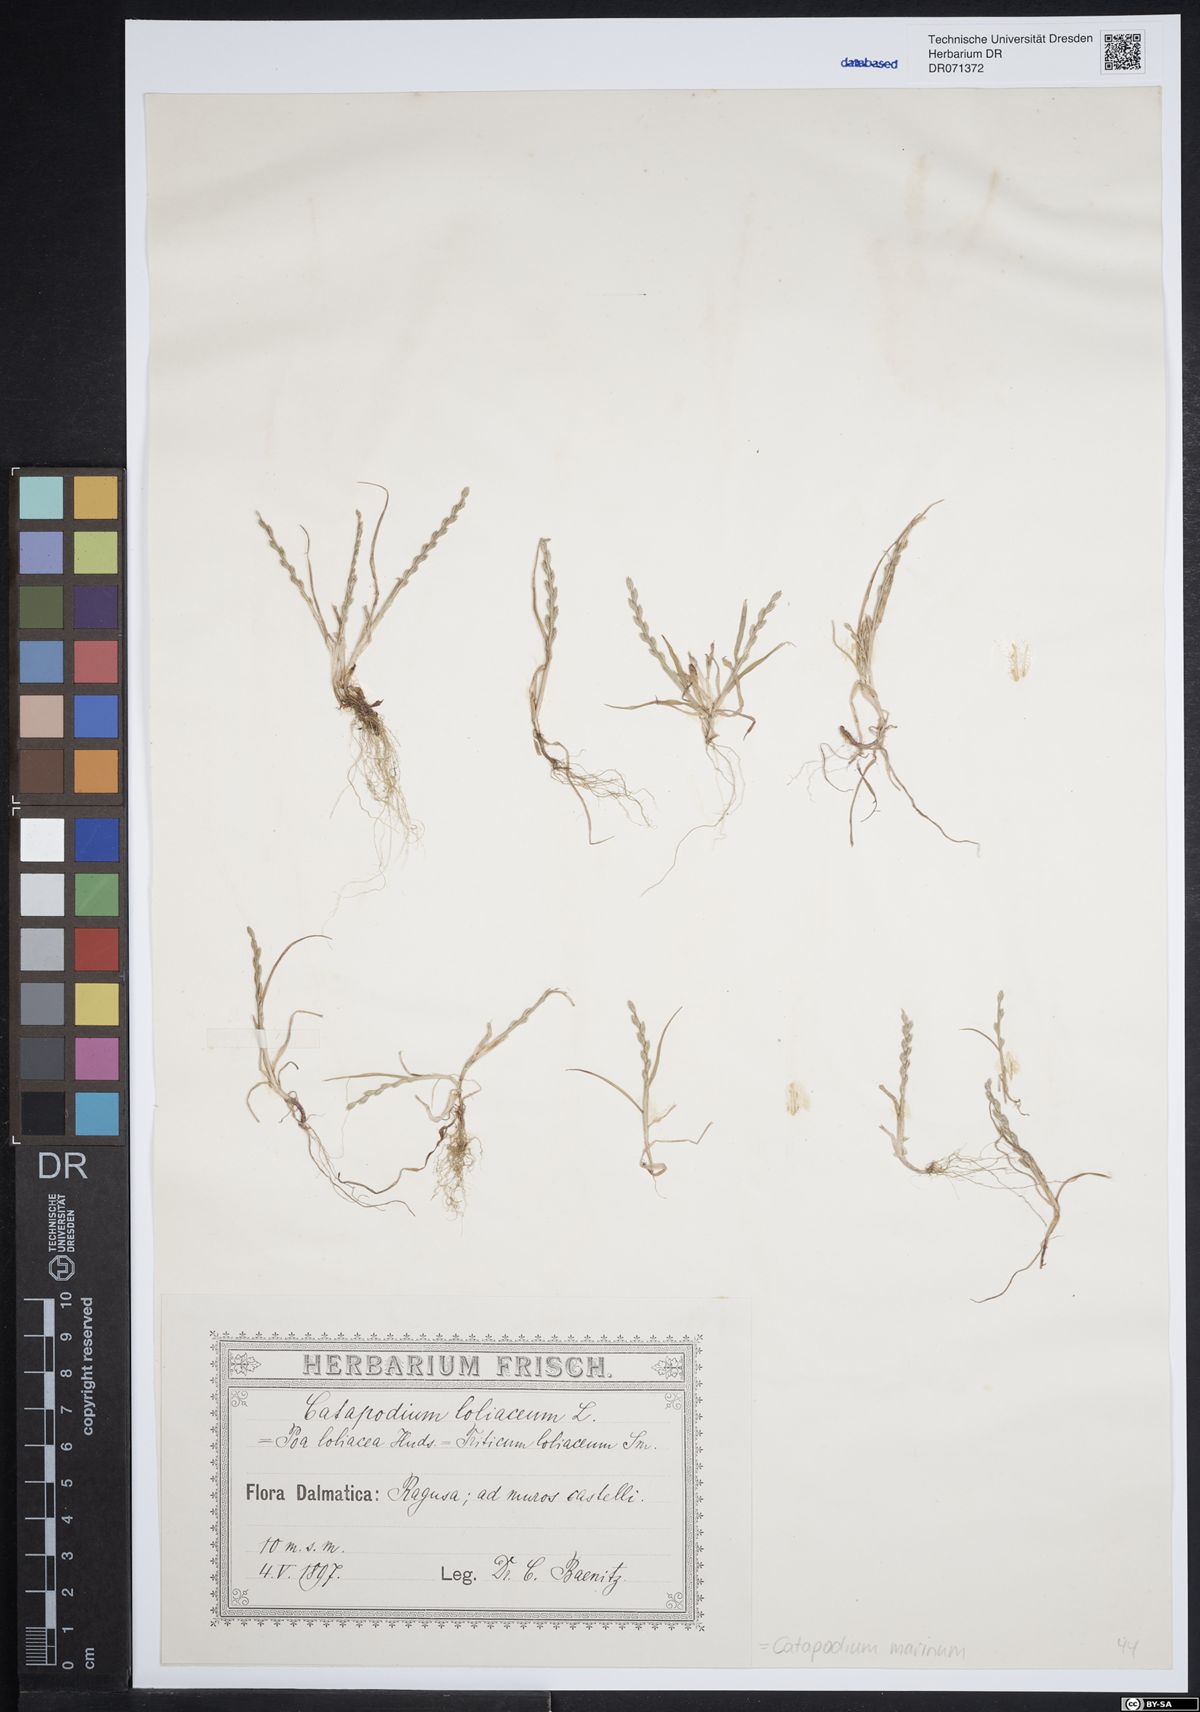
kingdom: Plantae
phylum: Tracheophyta
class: Liliopsida
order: Poales
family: Poaceae
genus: Catapodium
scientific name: Catapodium marinum
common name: Sea fern-grass
